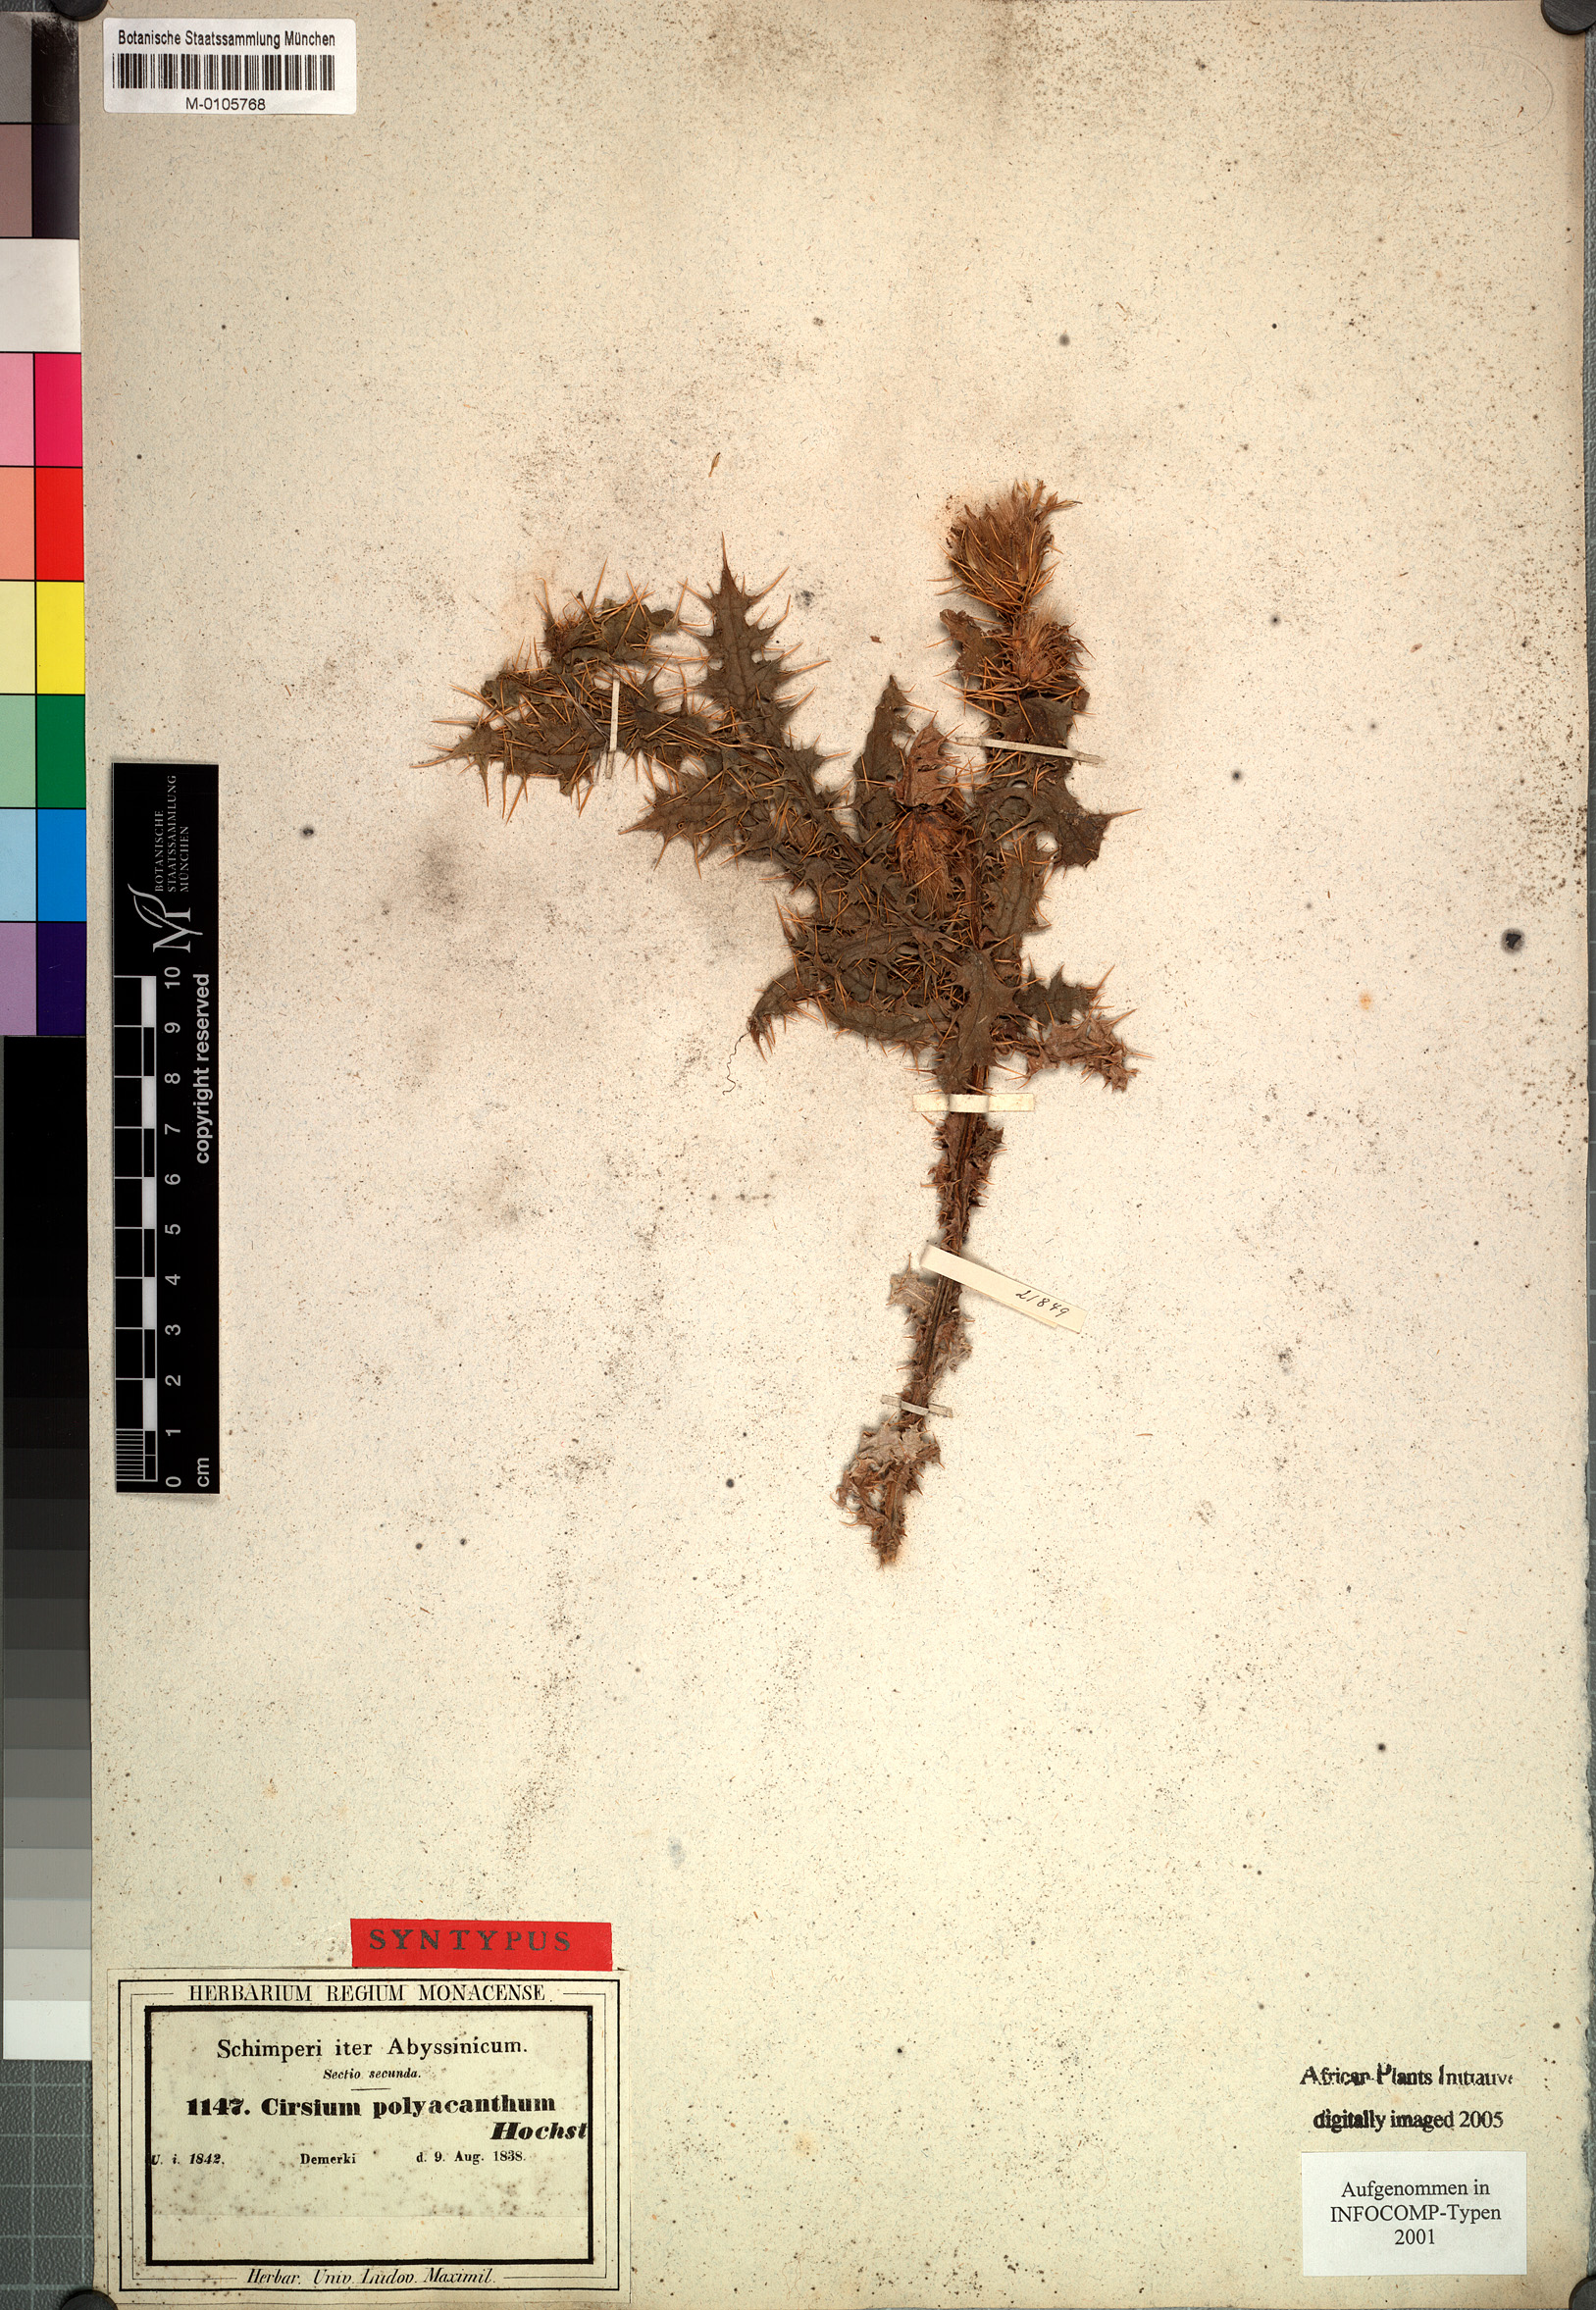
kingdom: Plantae
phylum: Tracheophyta
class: Magnoliopsida
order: Asterales
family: Asteraceae
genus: Cirsium
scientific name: Cirsium
